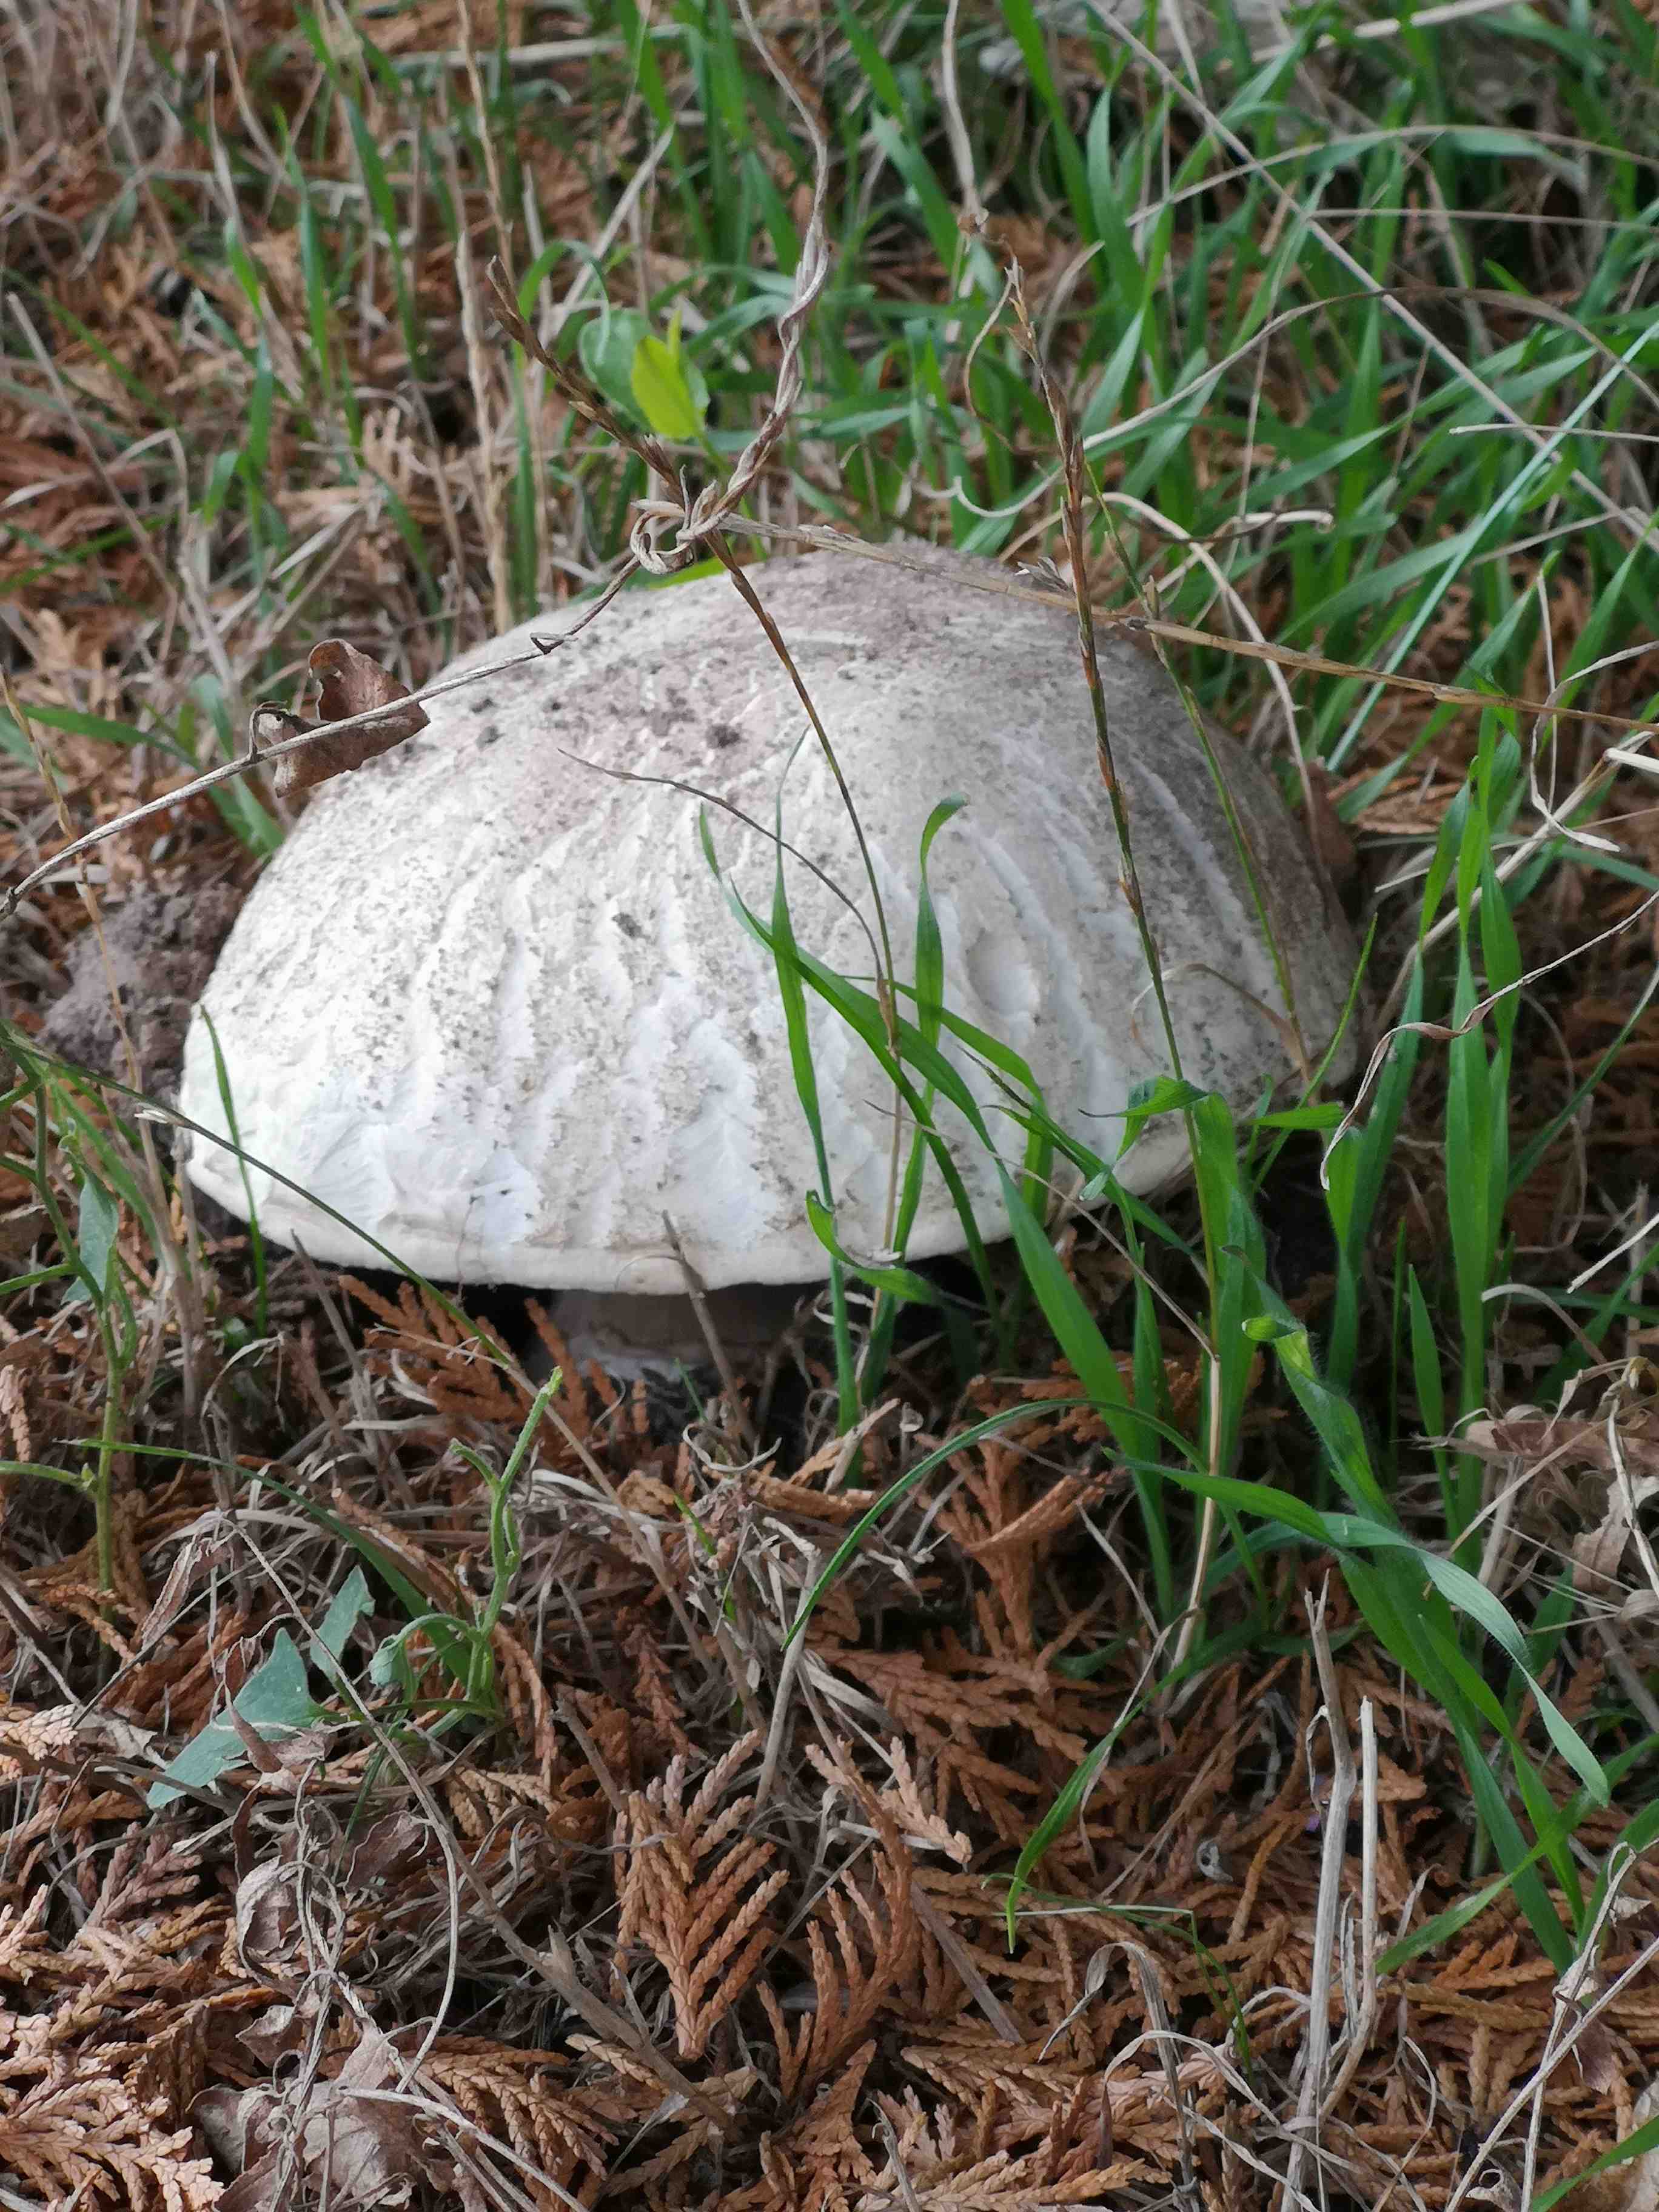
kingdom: Fungi
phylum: Basidiomycota
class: Agaricomycetes
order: Agaricales
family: Agaricaceae
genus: Agaricus
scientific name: Agaricus
